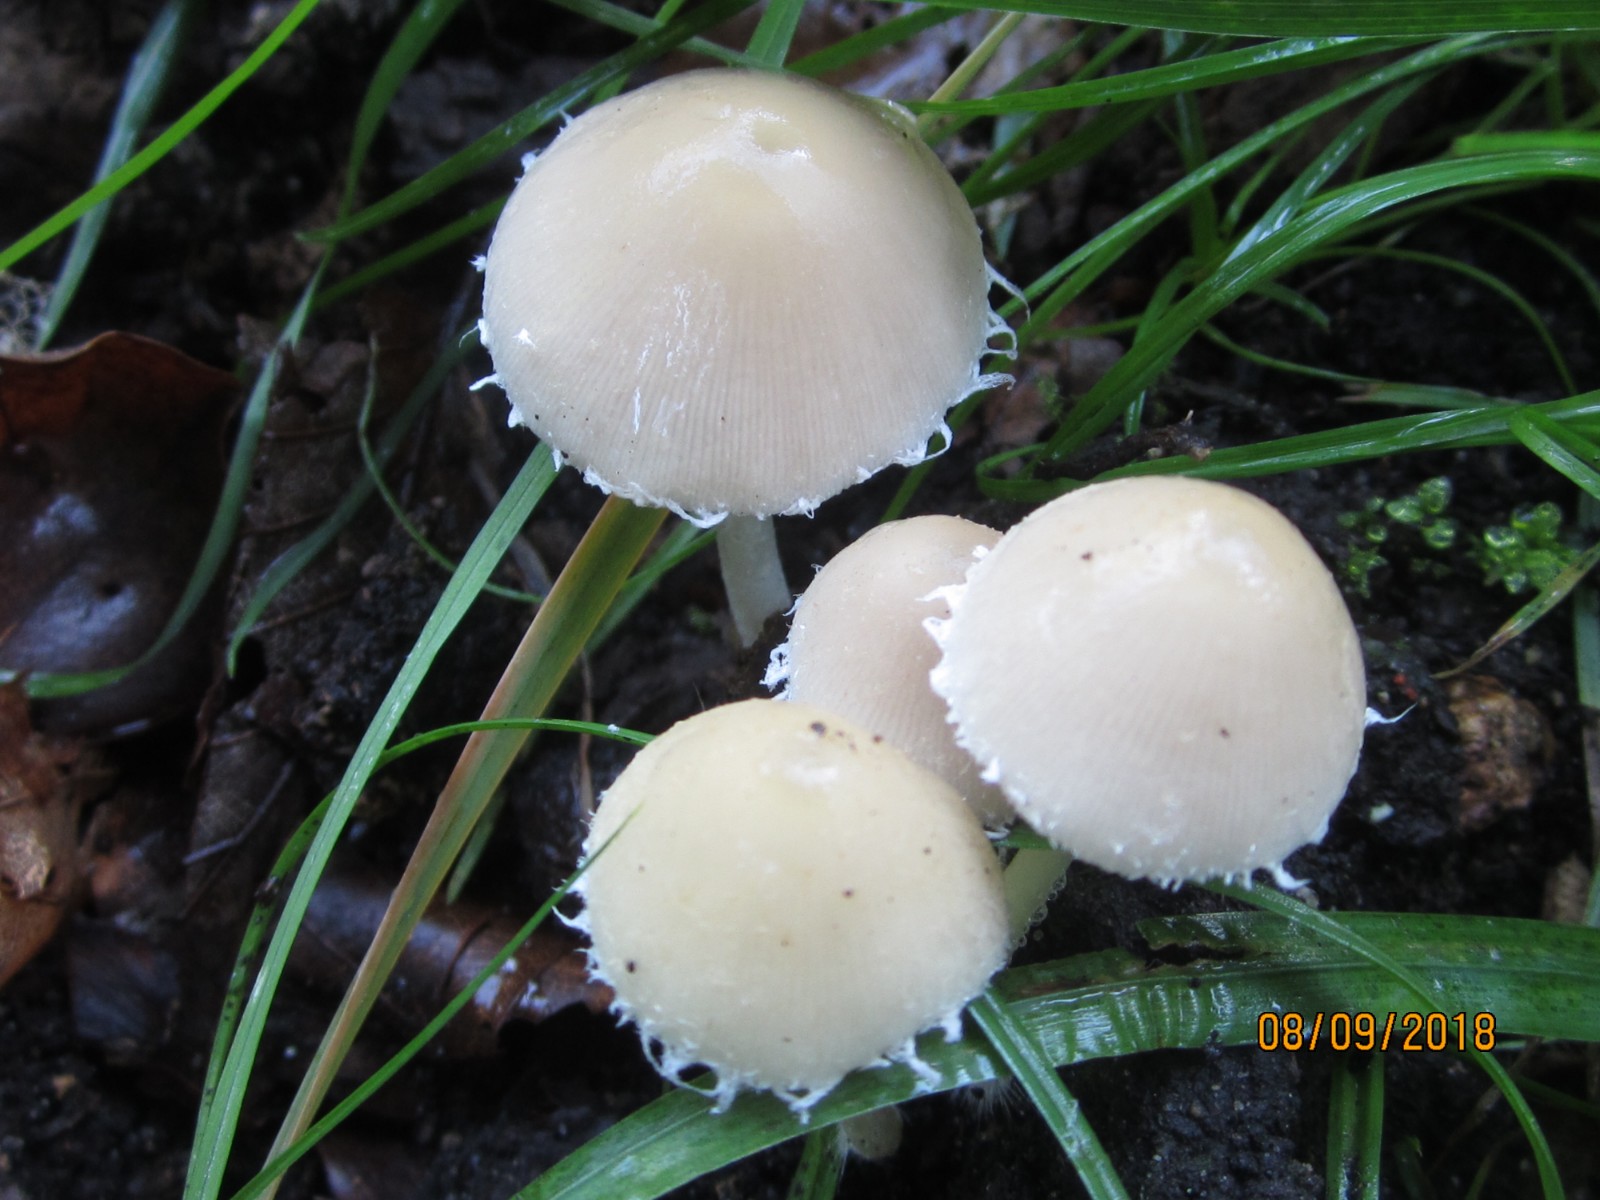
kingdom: Fungi
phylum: Basidiomycota
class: Agaricomycetes
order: Agaricales
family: Psathyrellaceae
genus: Candolleomyces
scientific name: Candolleomyces candolleanus
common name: Candolles mørkhat
